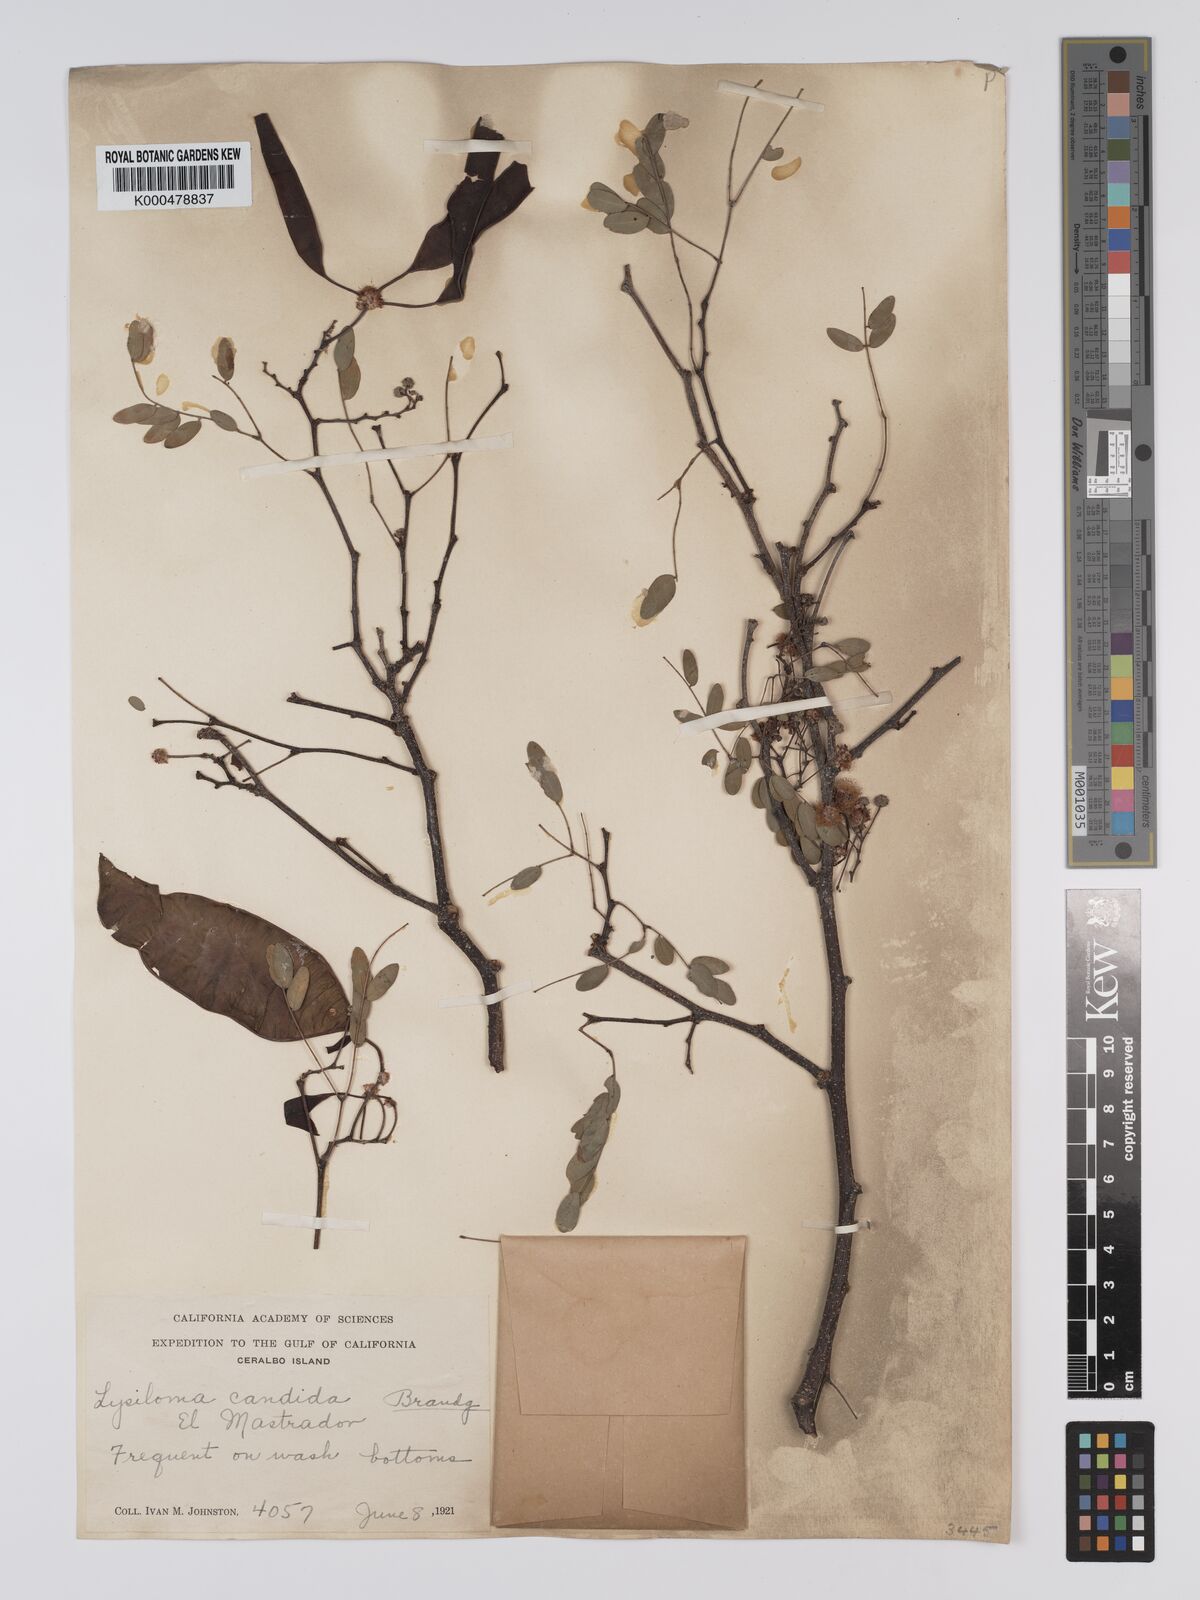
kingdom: Plantae
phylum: Tracheophyta
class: Magnoliopsida
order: Fabales
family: Fabaceae
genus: Lysiloma
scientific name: Lysiloma candidum
